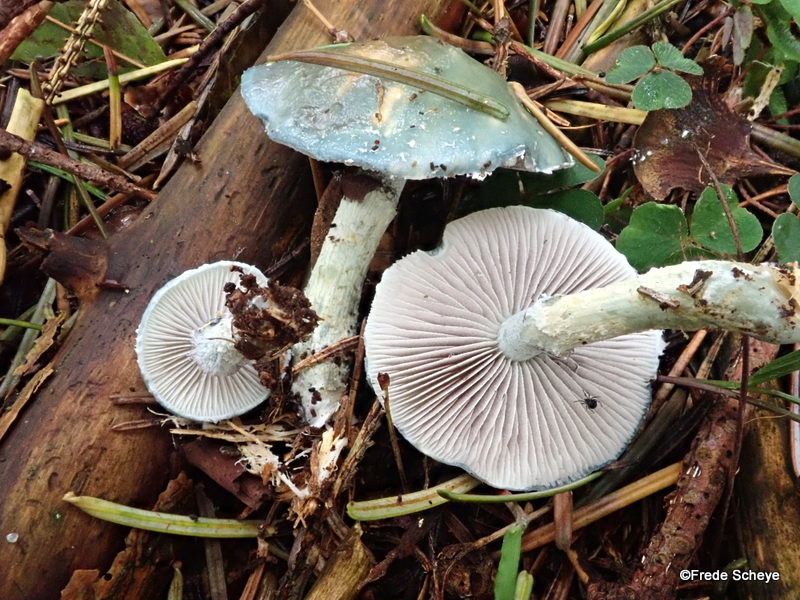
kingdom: Fungi
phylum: Basidiomycota
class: Agaricomycetes
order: Agaricales
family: Strophariaceae
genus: Stropharia
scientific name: Stropharia cyanea
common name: blågrøn bredblad
